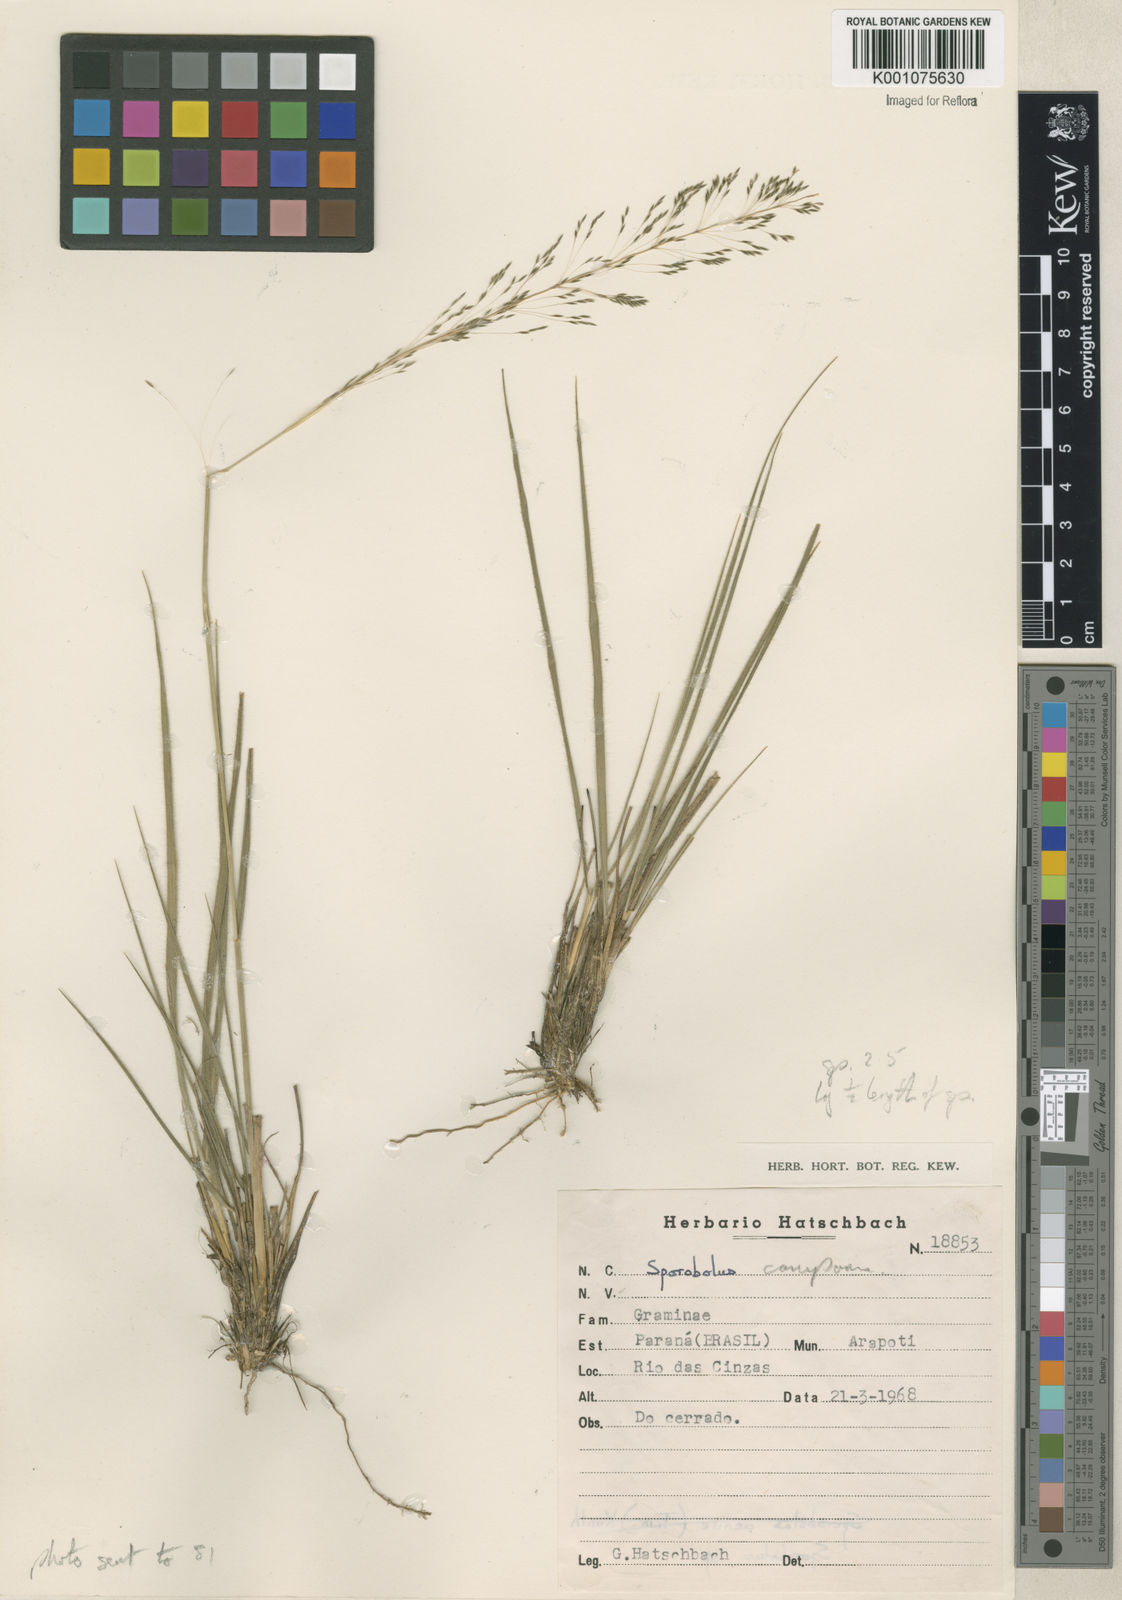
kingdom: Plantae
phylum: Tracheophyta
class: Liliopsida
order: Poales
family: Poaceae
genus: Sporobolus
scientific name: Sporobolus camporum
